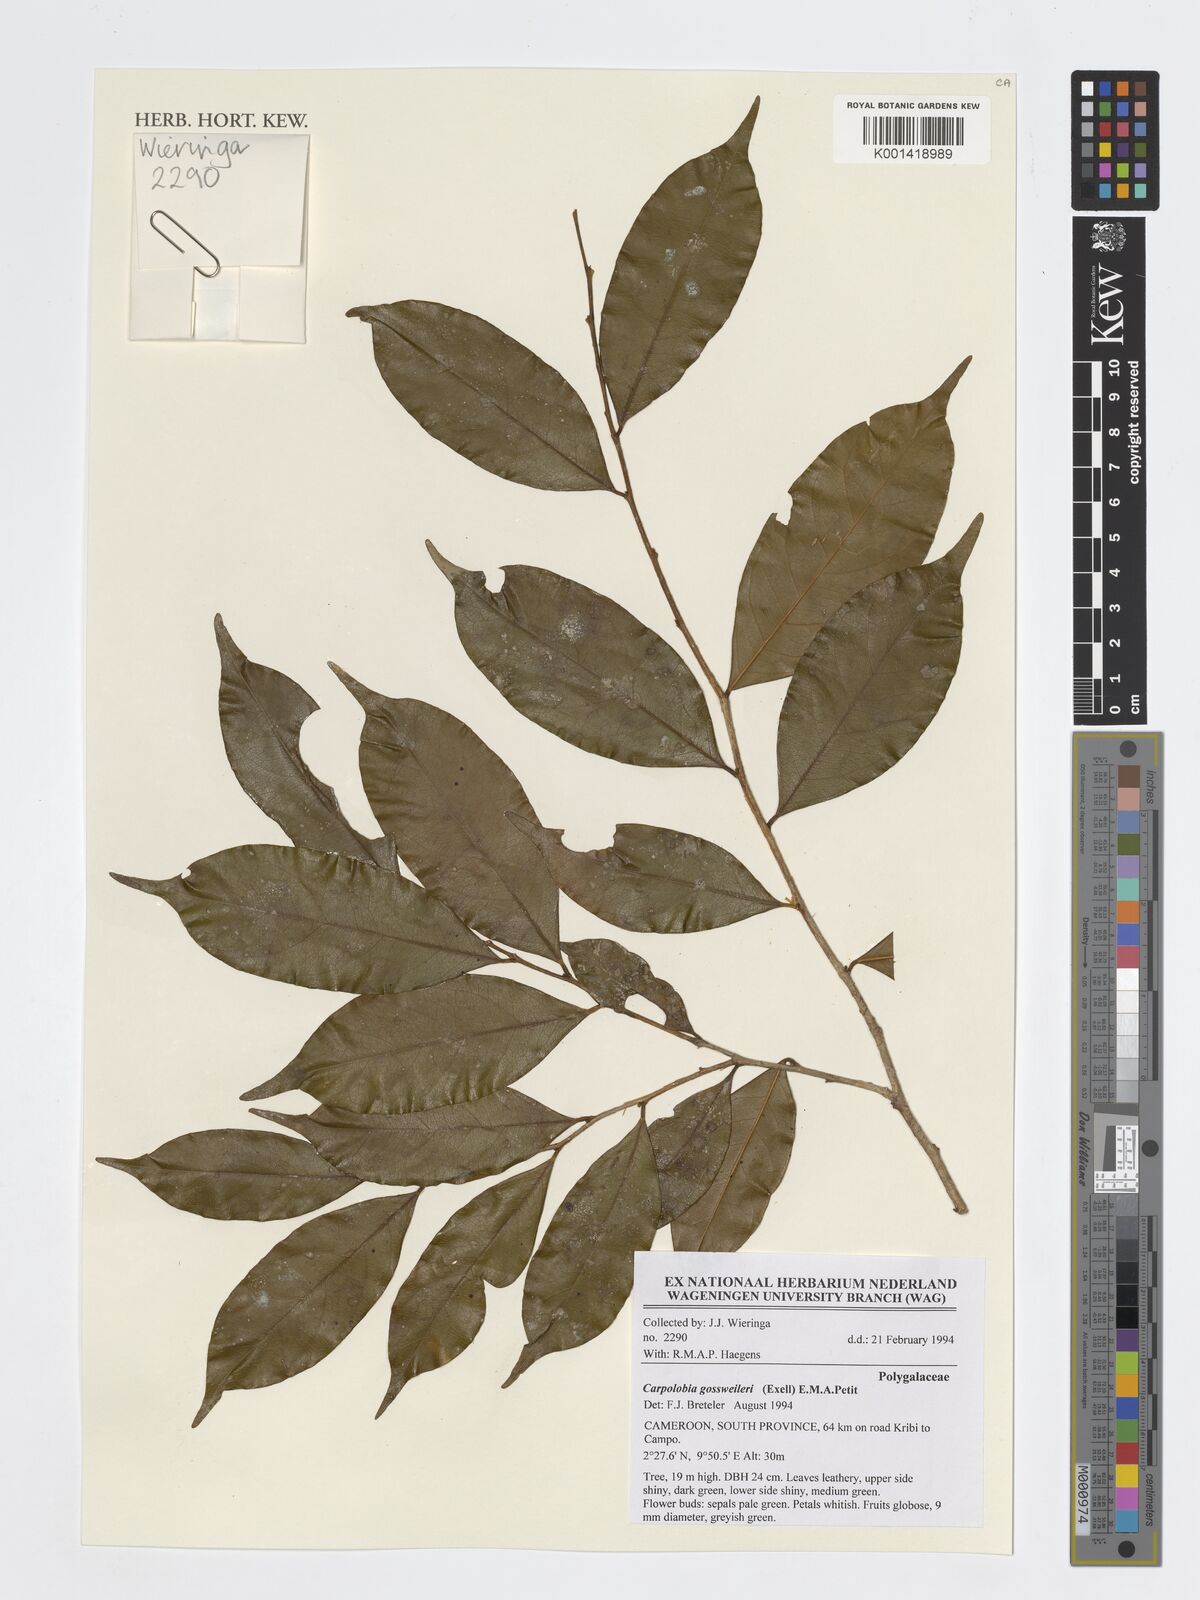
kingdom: Plantae
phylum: Tracheophyta
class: Magnoliopsida
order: Fabales
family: Polygalaceae
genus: Carpolobia
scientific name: Carpolobia gossweileri
